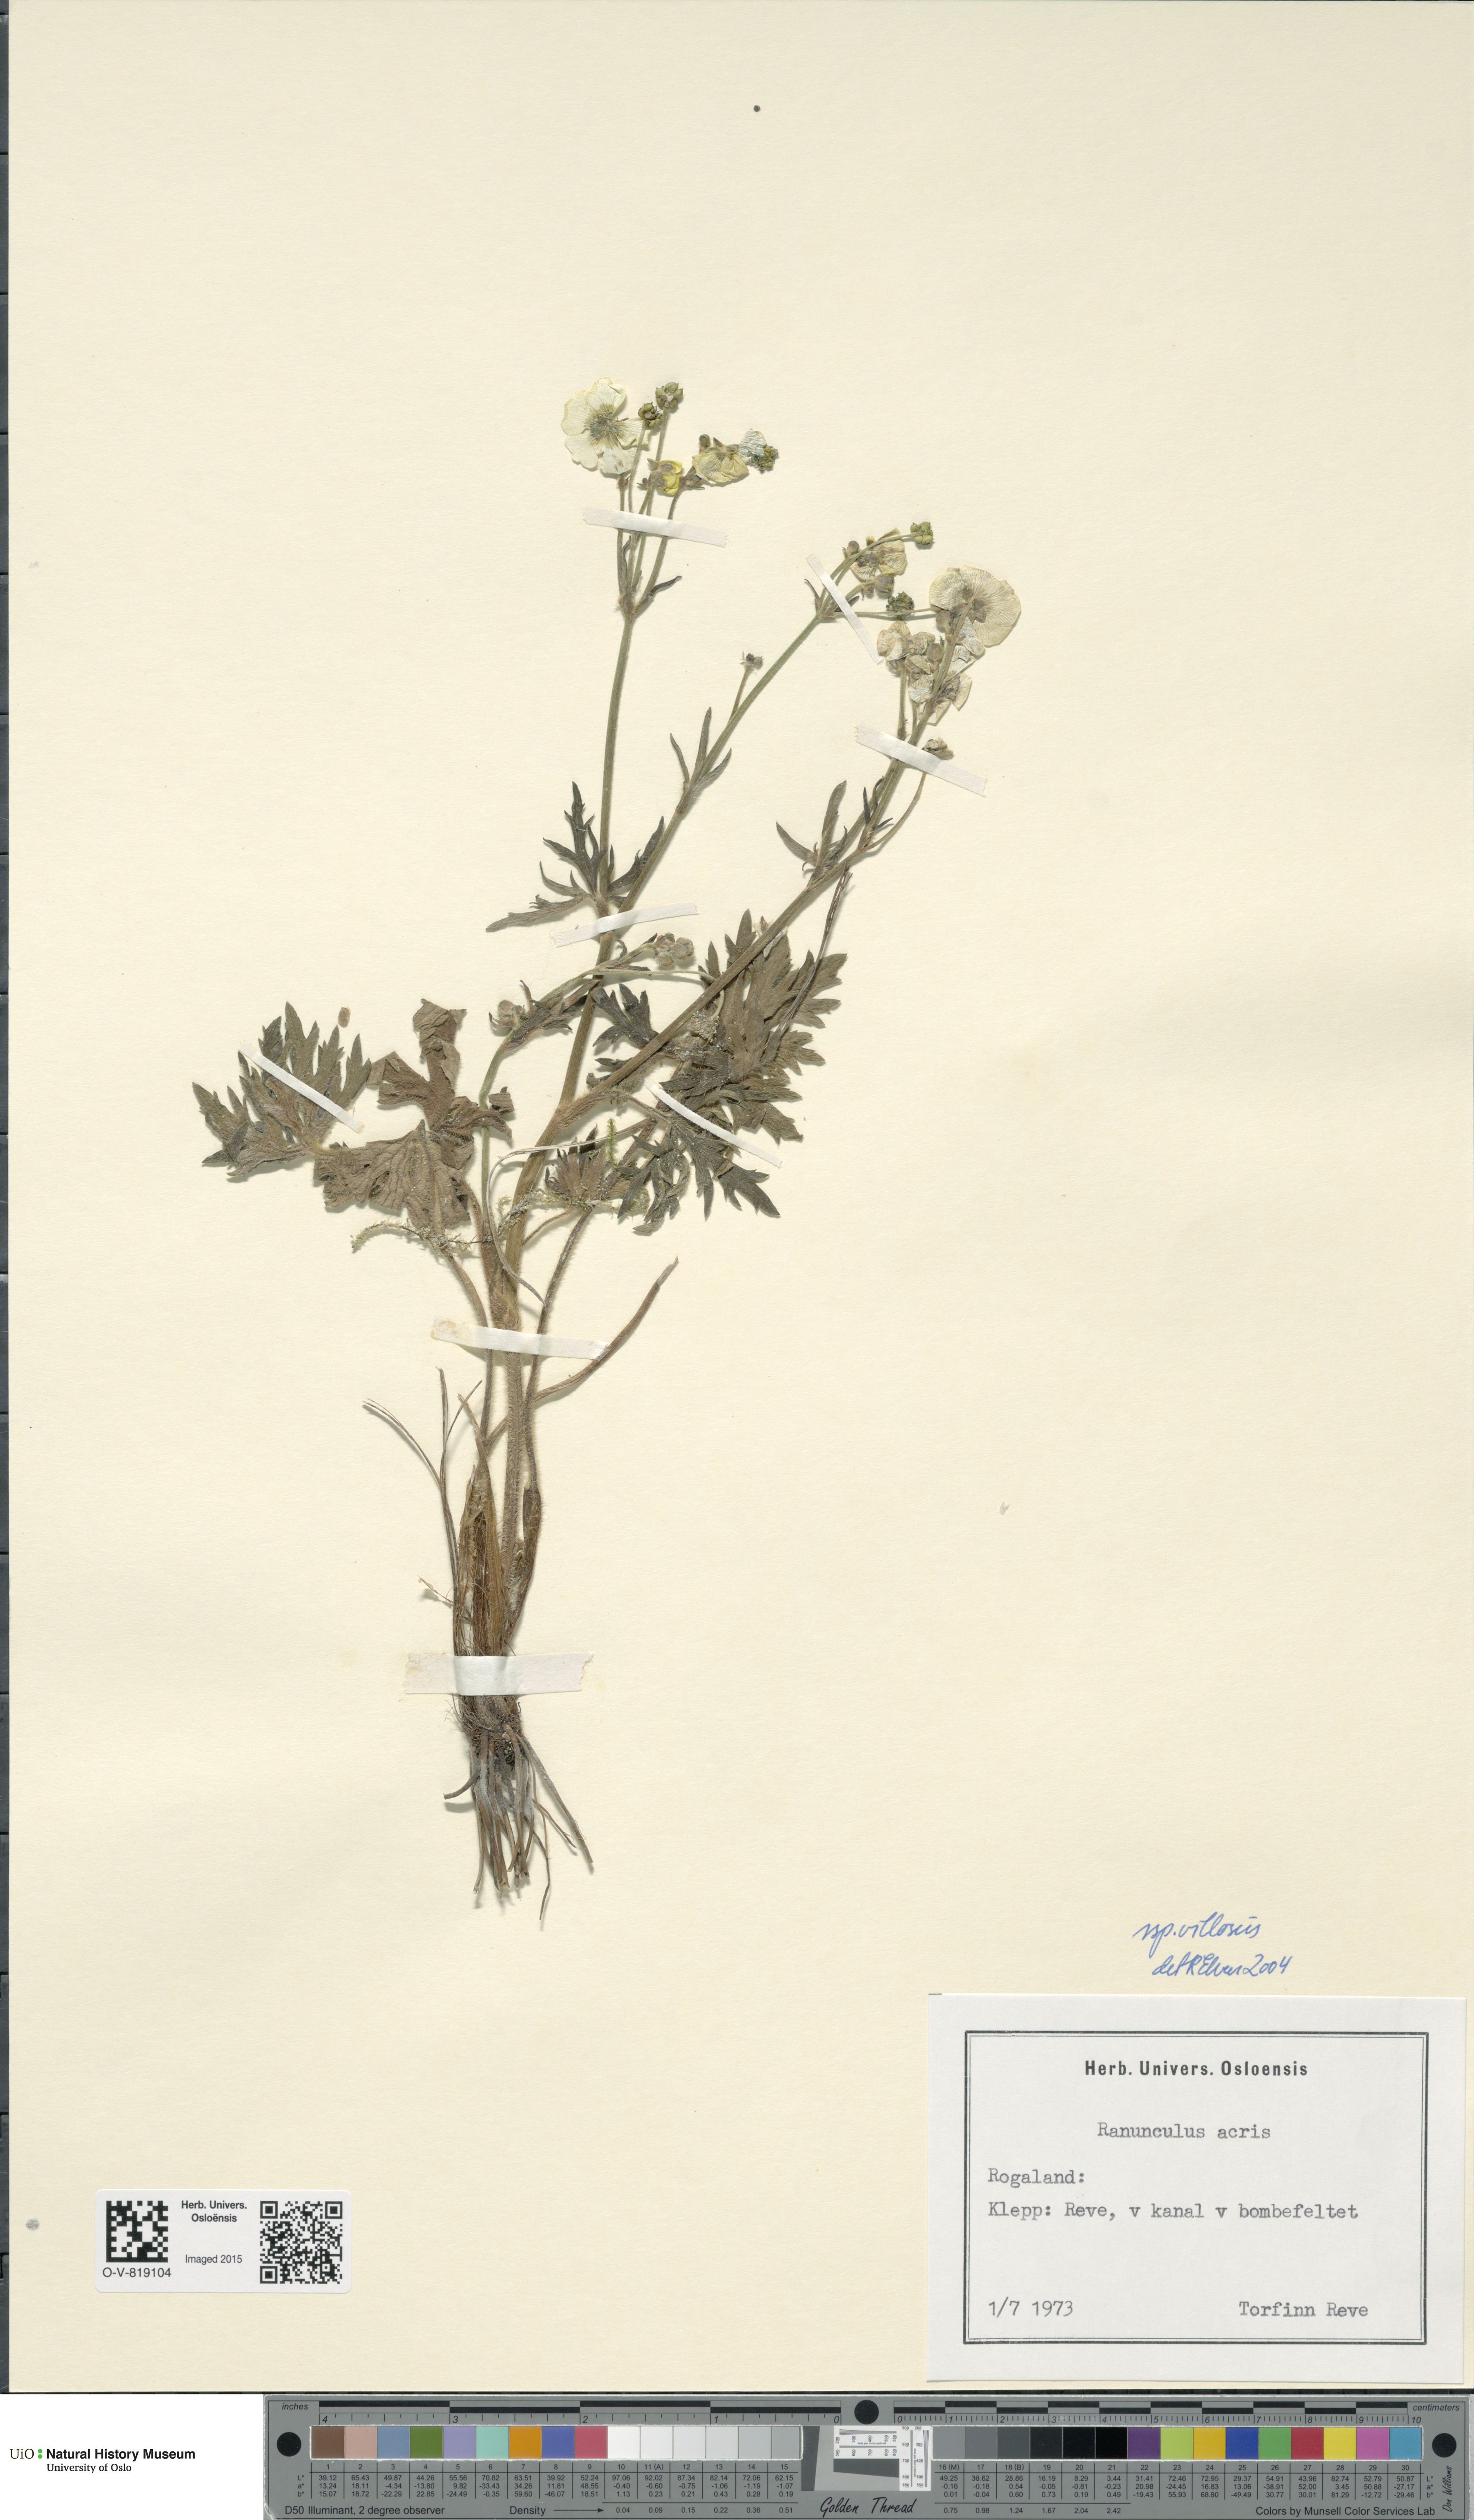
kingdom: Plantae
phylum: Tracheophyta
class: Magnoliopsida
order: Ranunculales
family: Ranunculaceae
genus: Ranunculus
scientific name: Ranunculus propinquus
